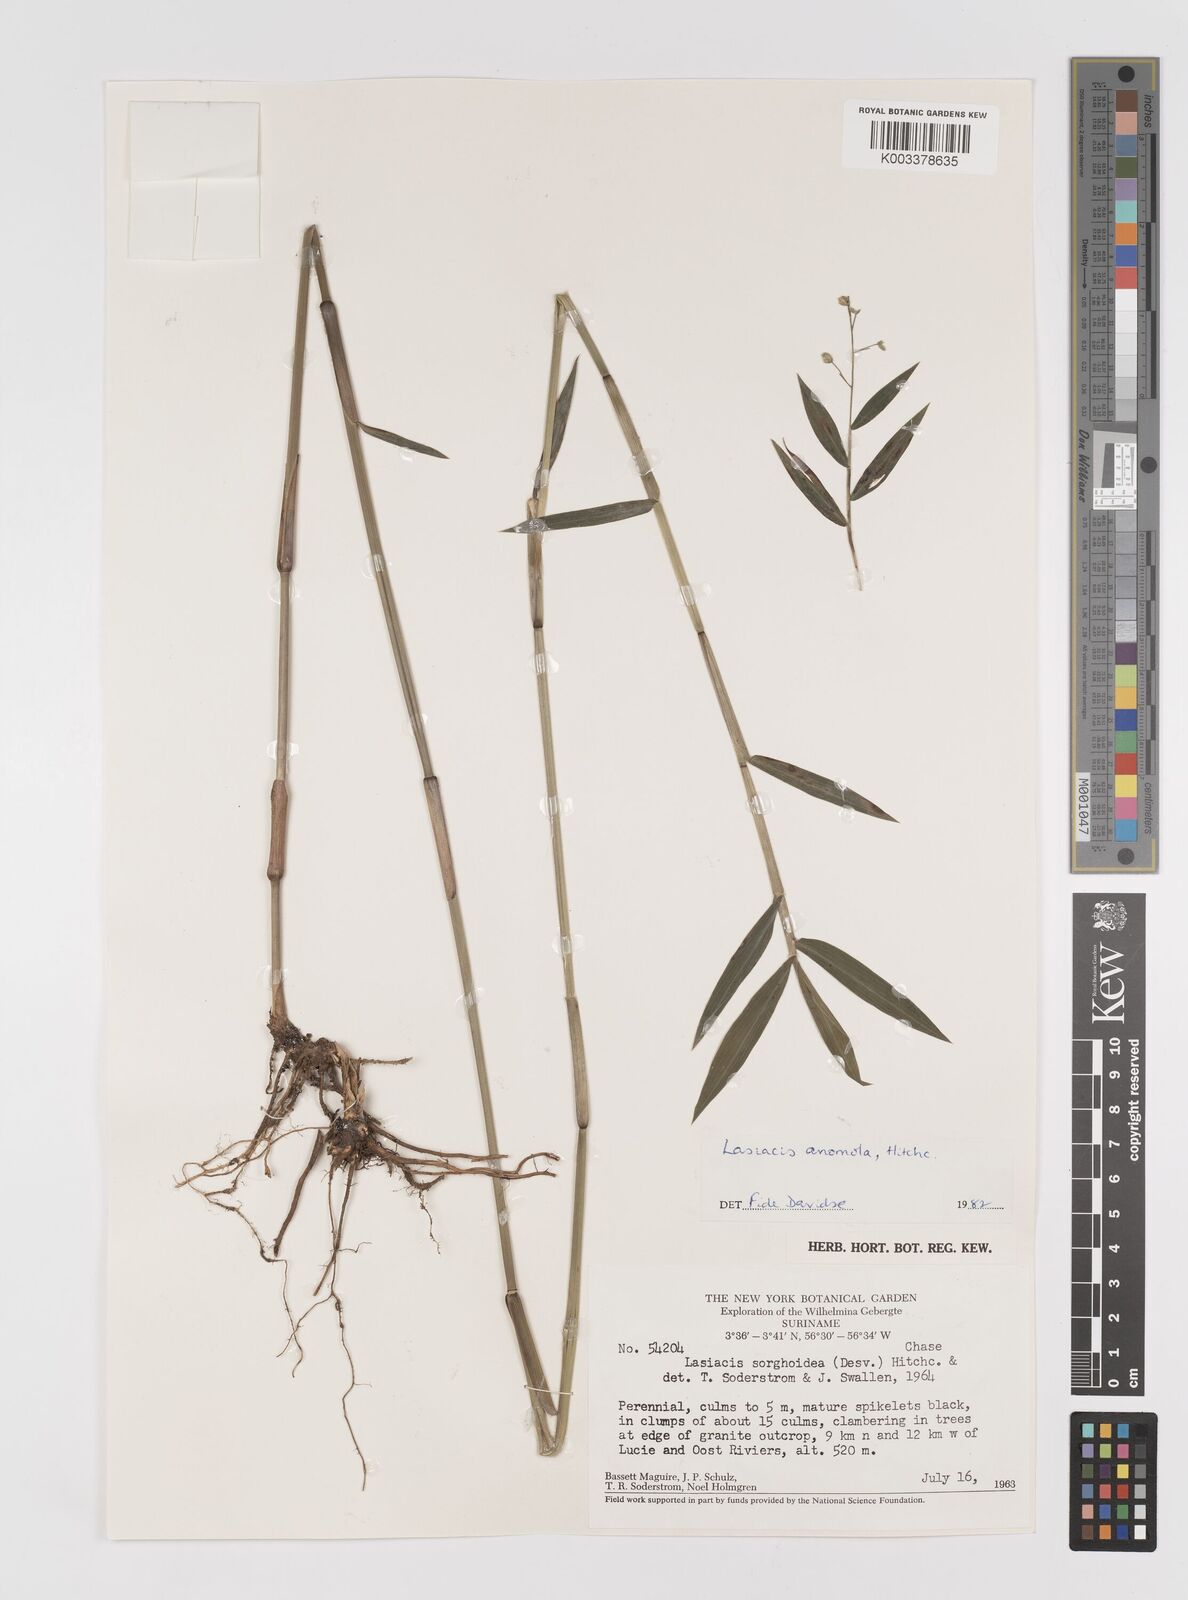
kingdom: Plantae
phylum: Tracheophyta
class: Liliopsida
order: Poales
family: Poaceae
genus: Lasiacis
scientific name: Lasiacis anomala
